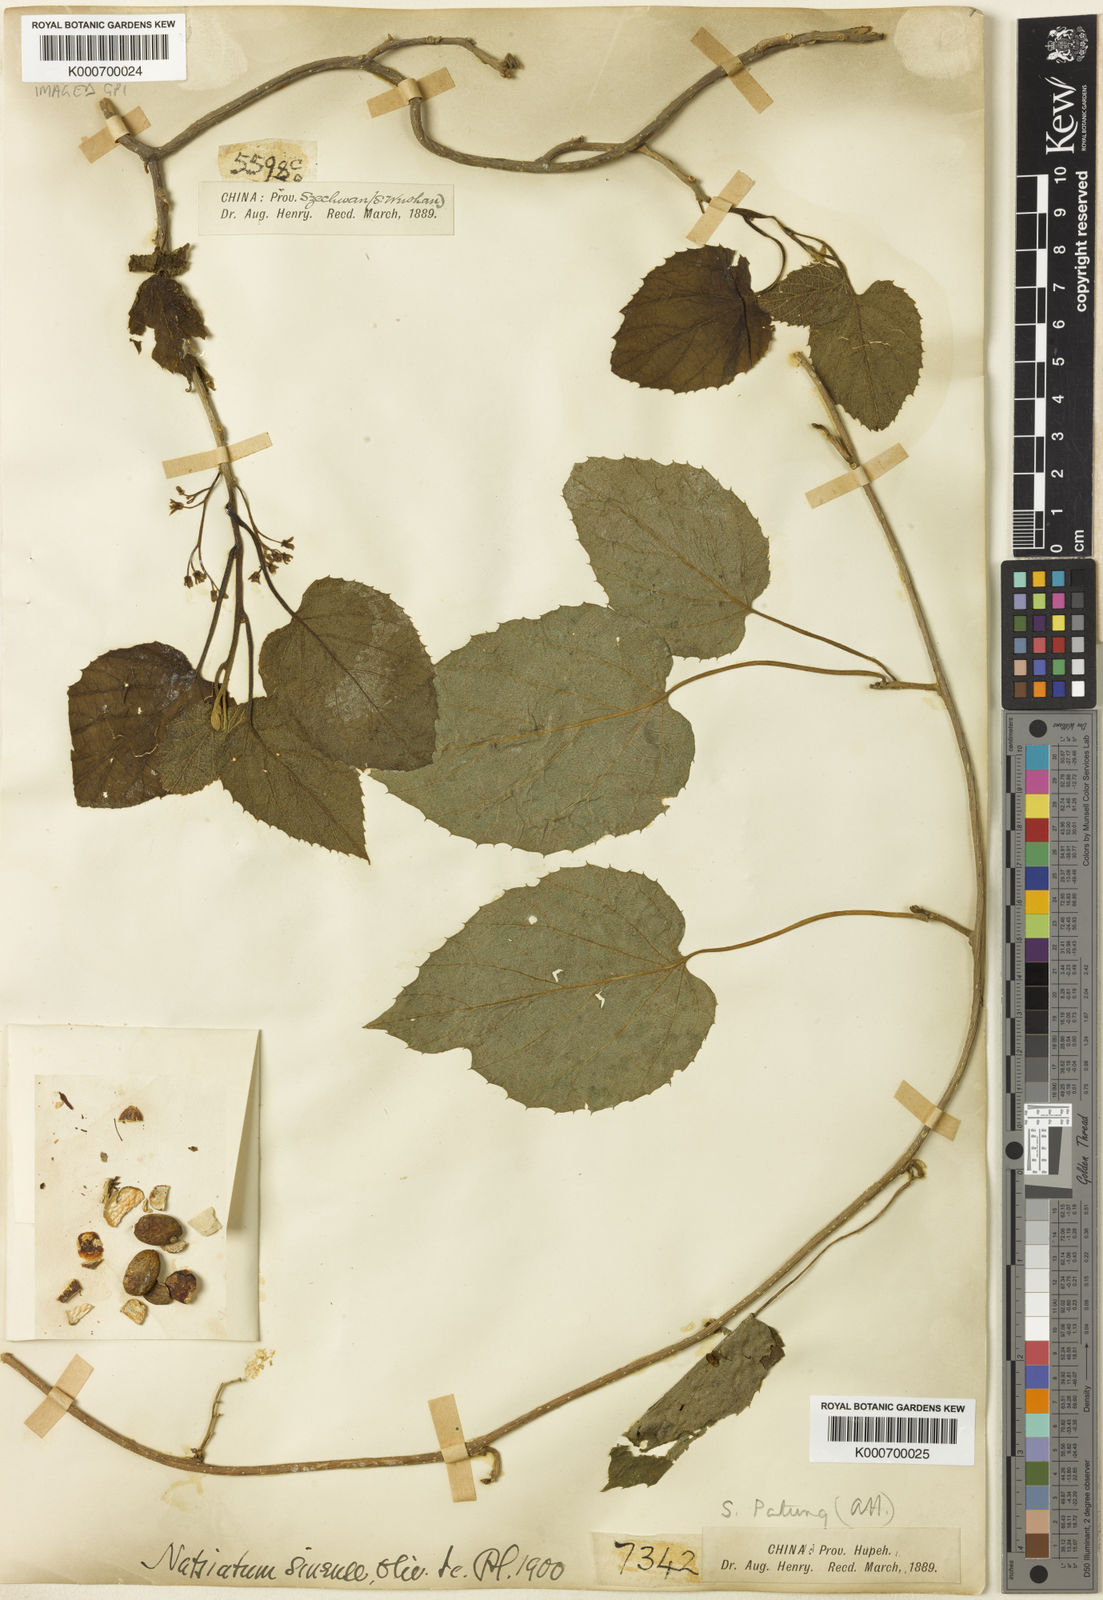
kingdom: Plantae
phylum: Tracheophyta
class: Magnoliopsida
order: Icacinales
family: Icacinaceae
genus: Hosiea
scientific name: Hosiea sinensis
